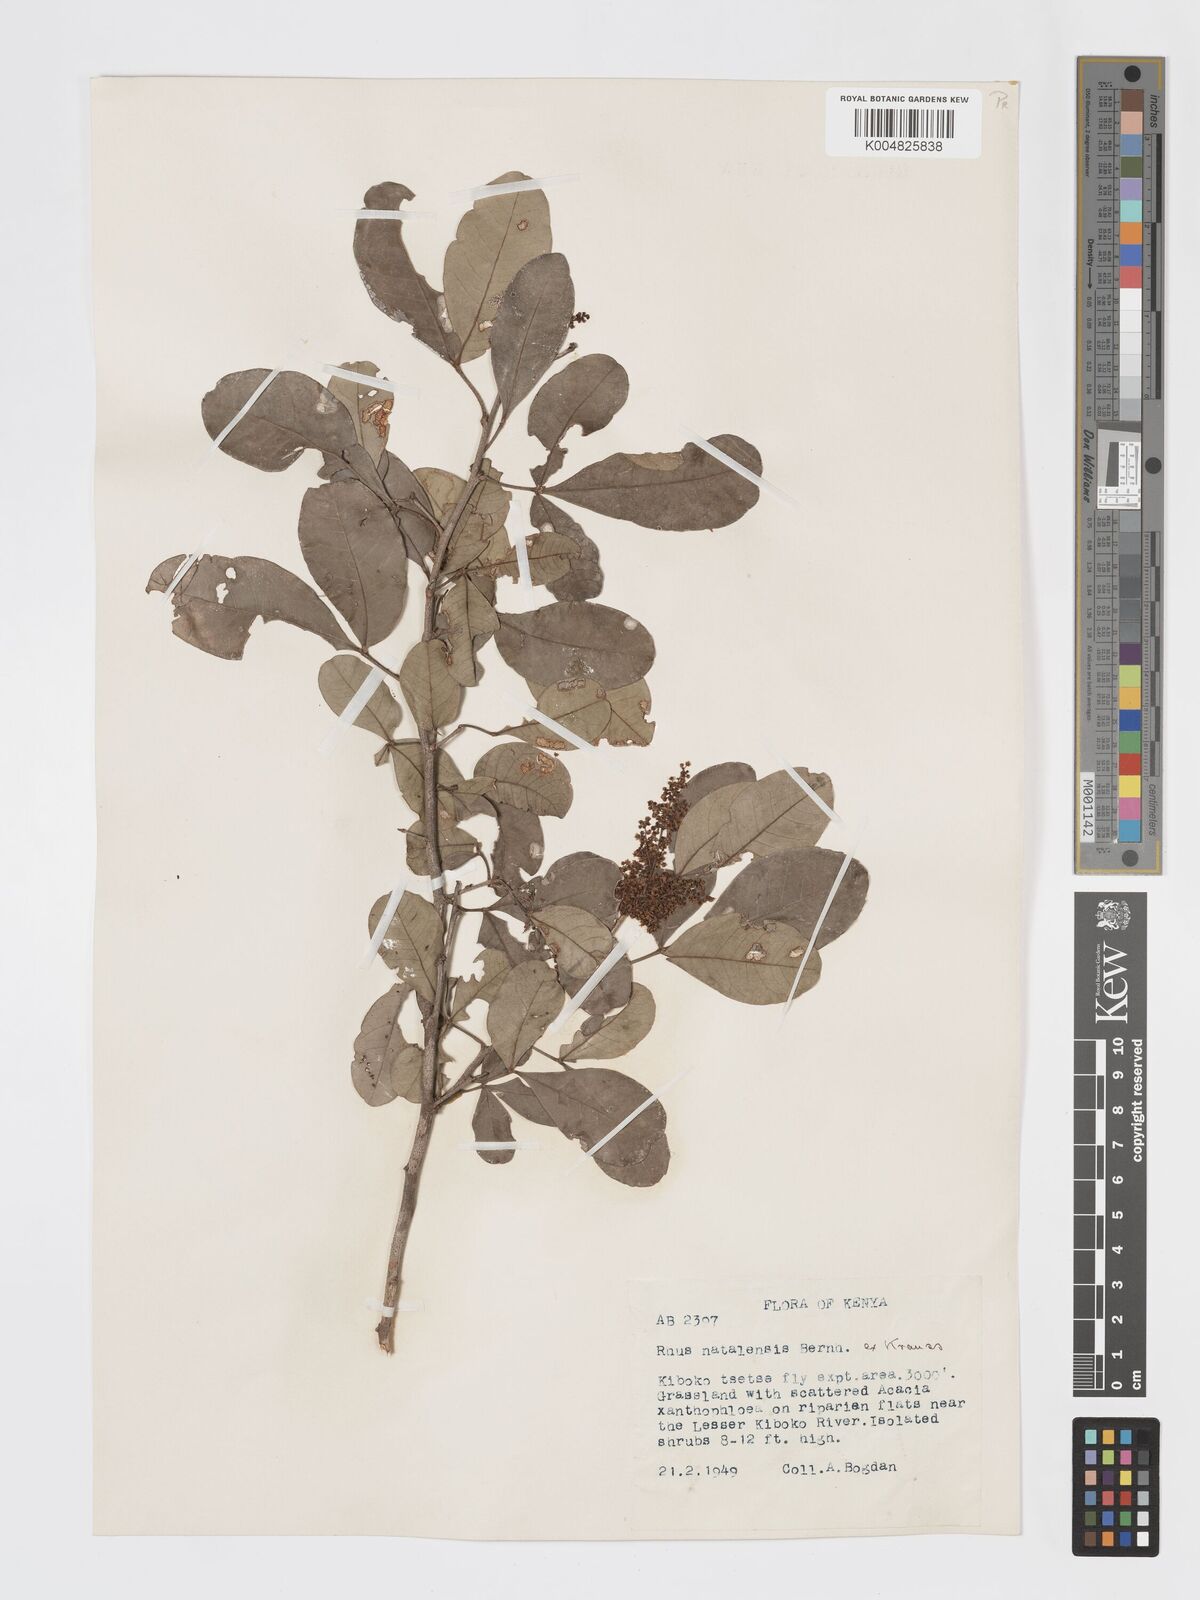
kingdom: Plantae
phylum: Tracheophyta
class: Magnoliopsida
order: Sapindales
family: Anacardiaceae
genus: Searsia
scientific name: Searsia natalensis
